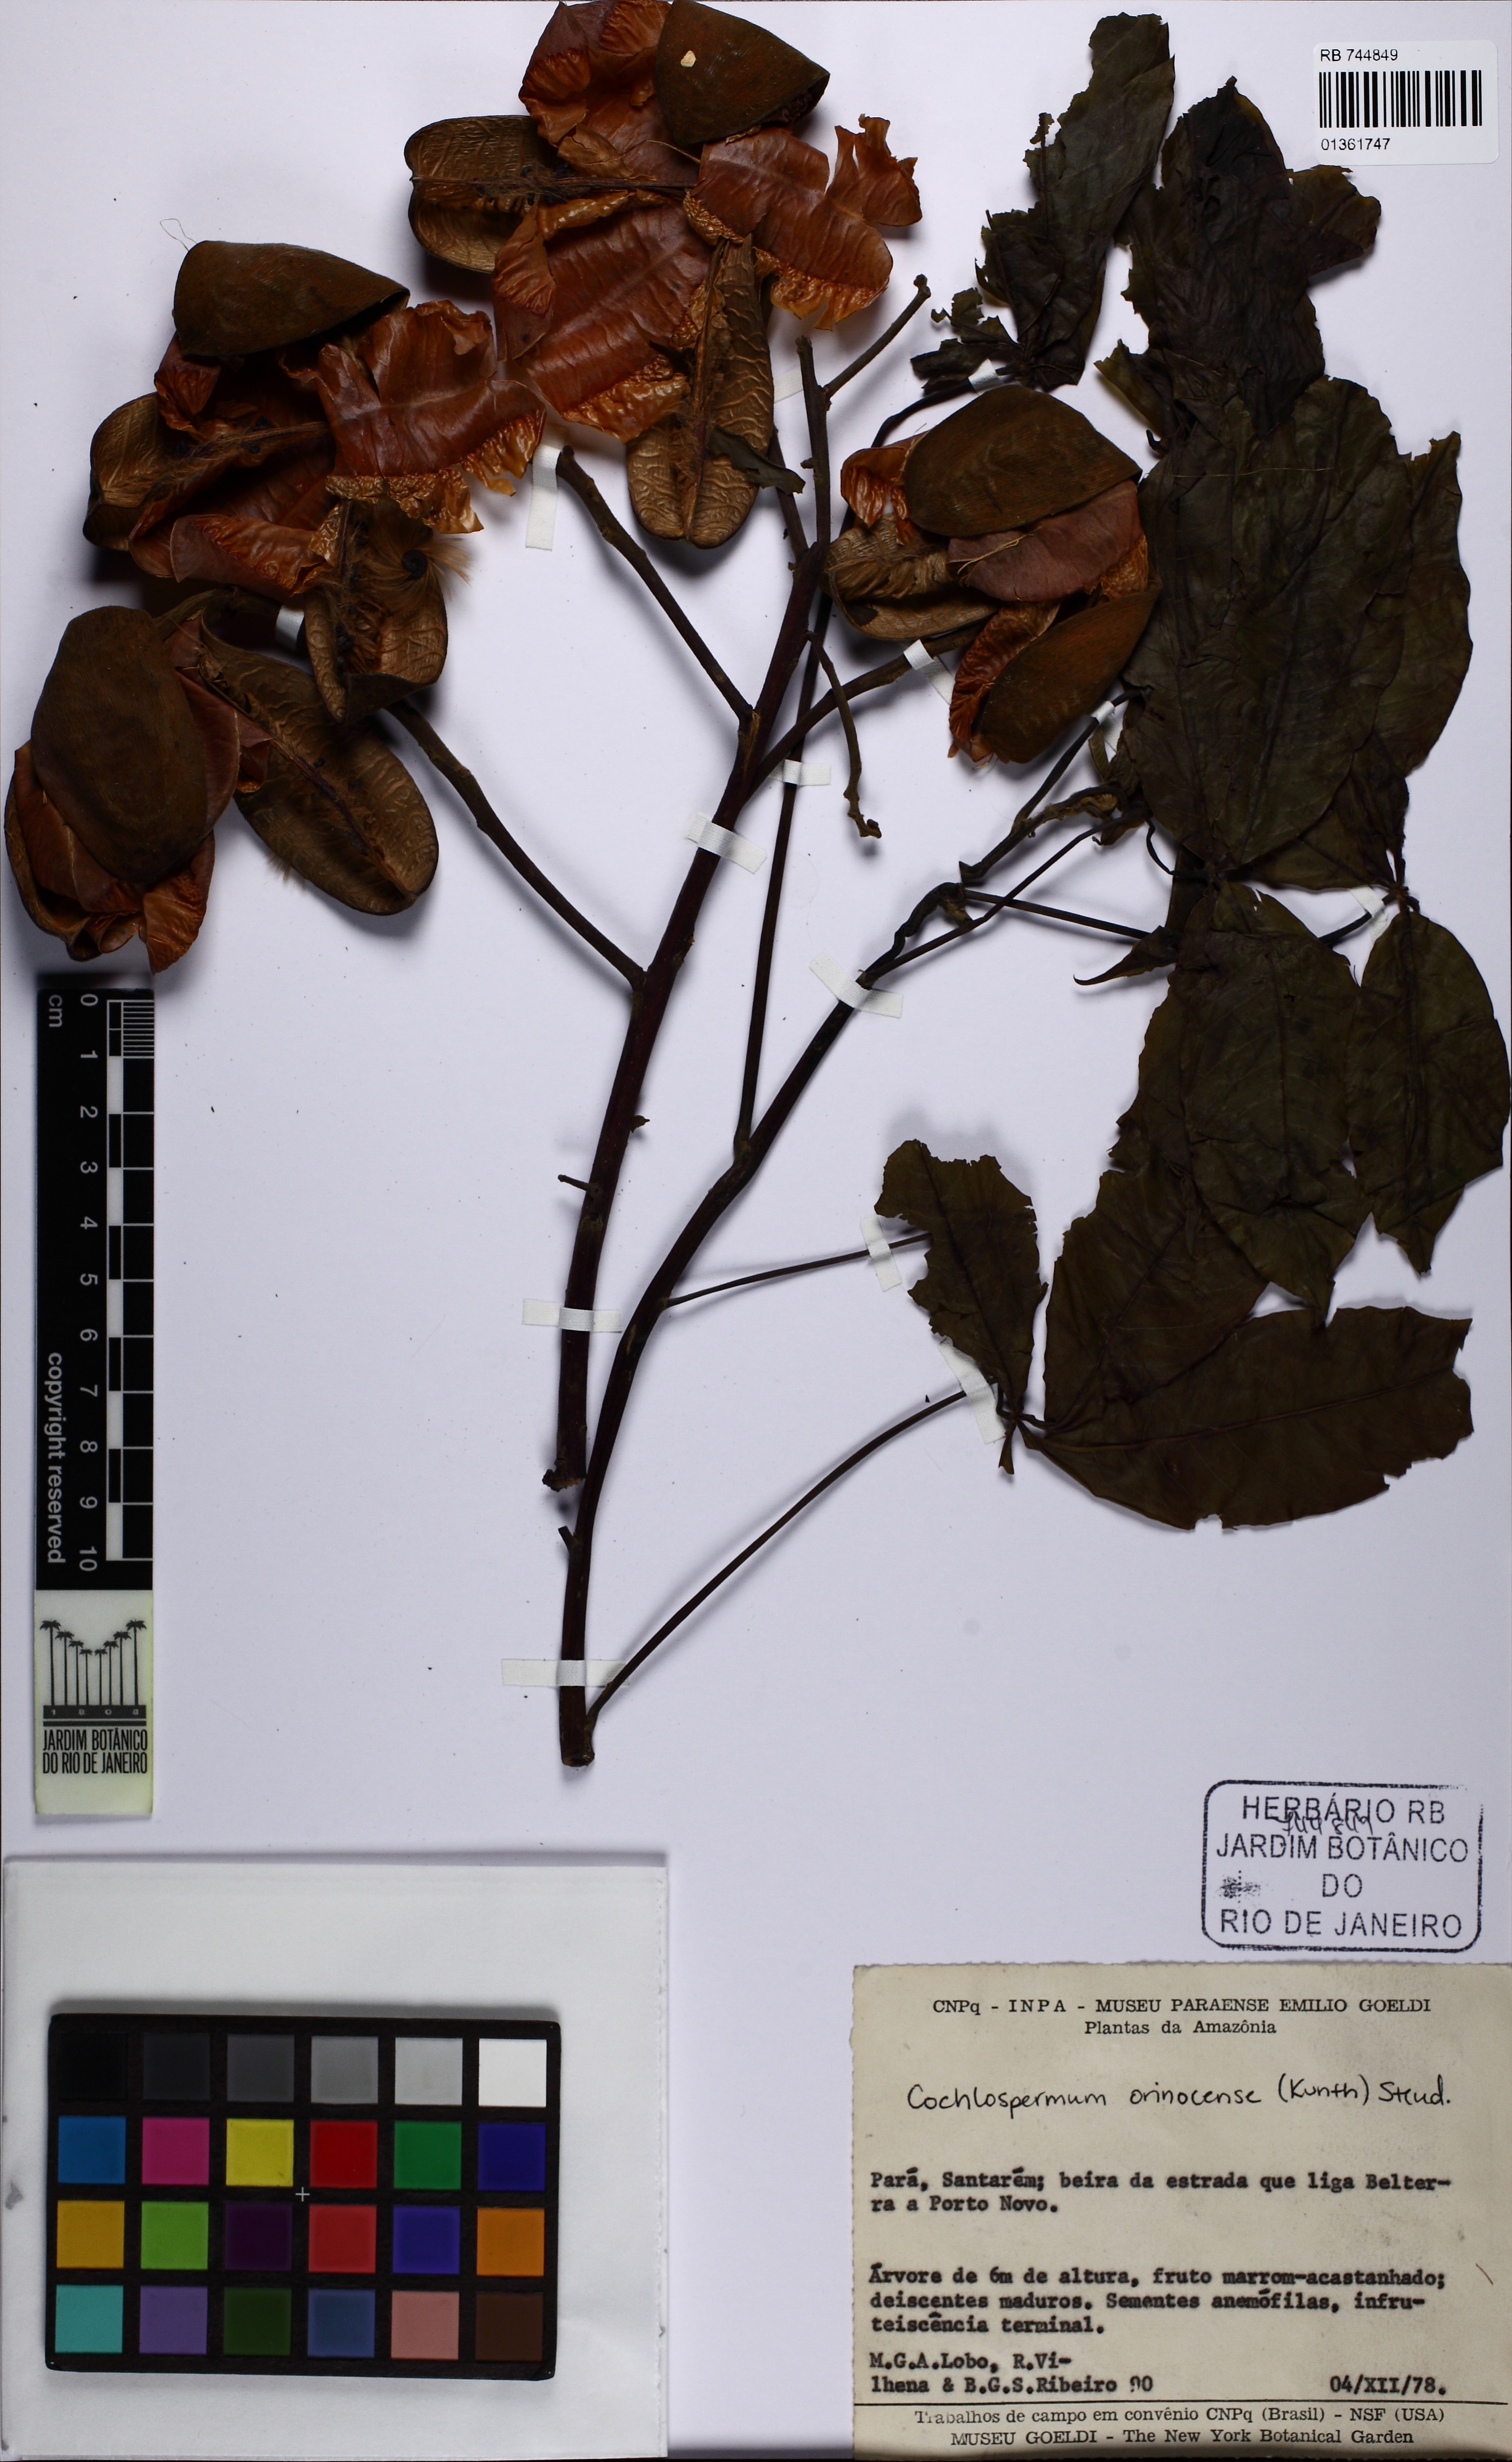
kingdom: Plantae
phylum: Tracheophyta
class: Magnoliopsida
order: Malvales
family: Cochlospermaceae
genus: Cochlospermum
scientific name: Cochlospermum orinocense
